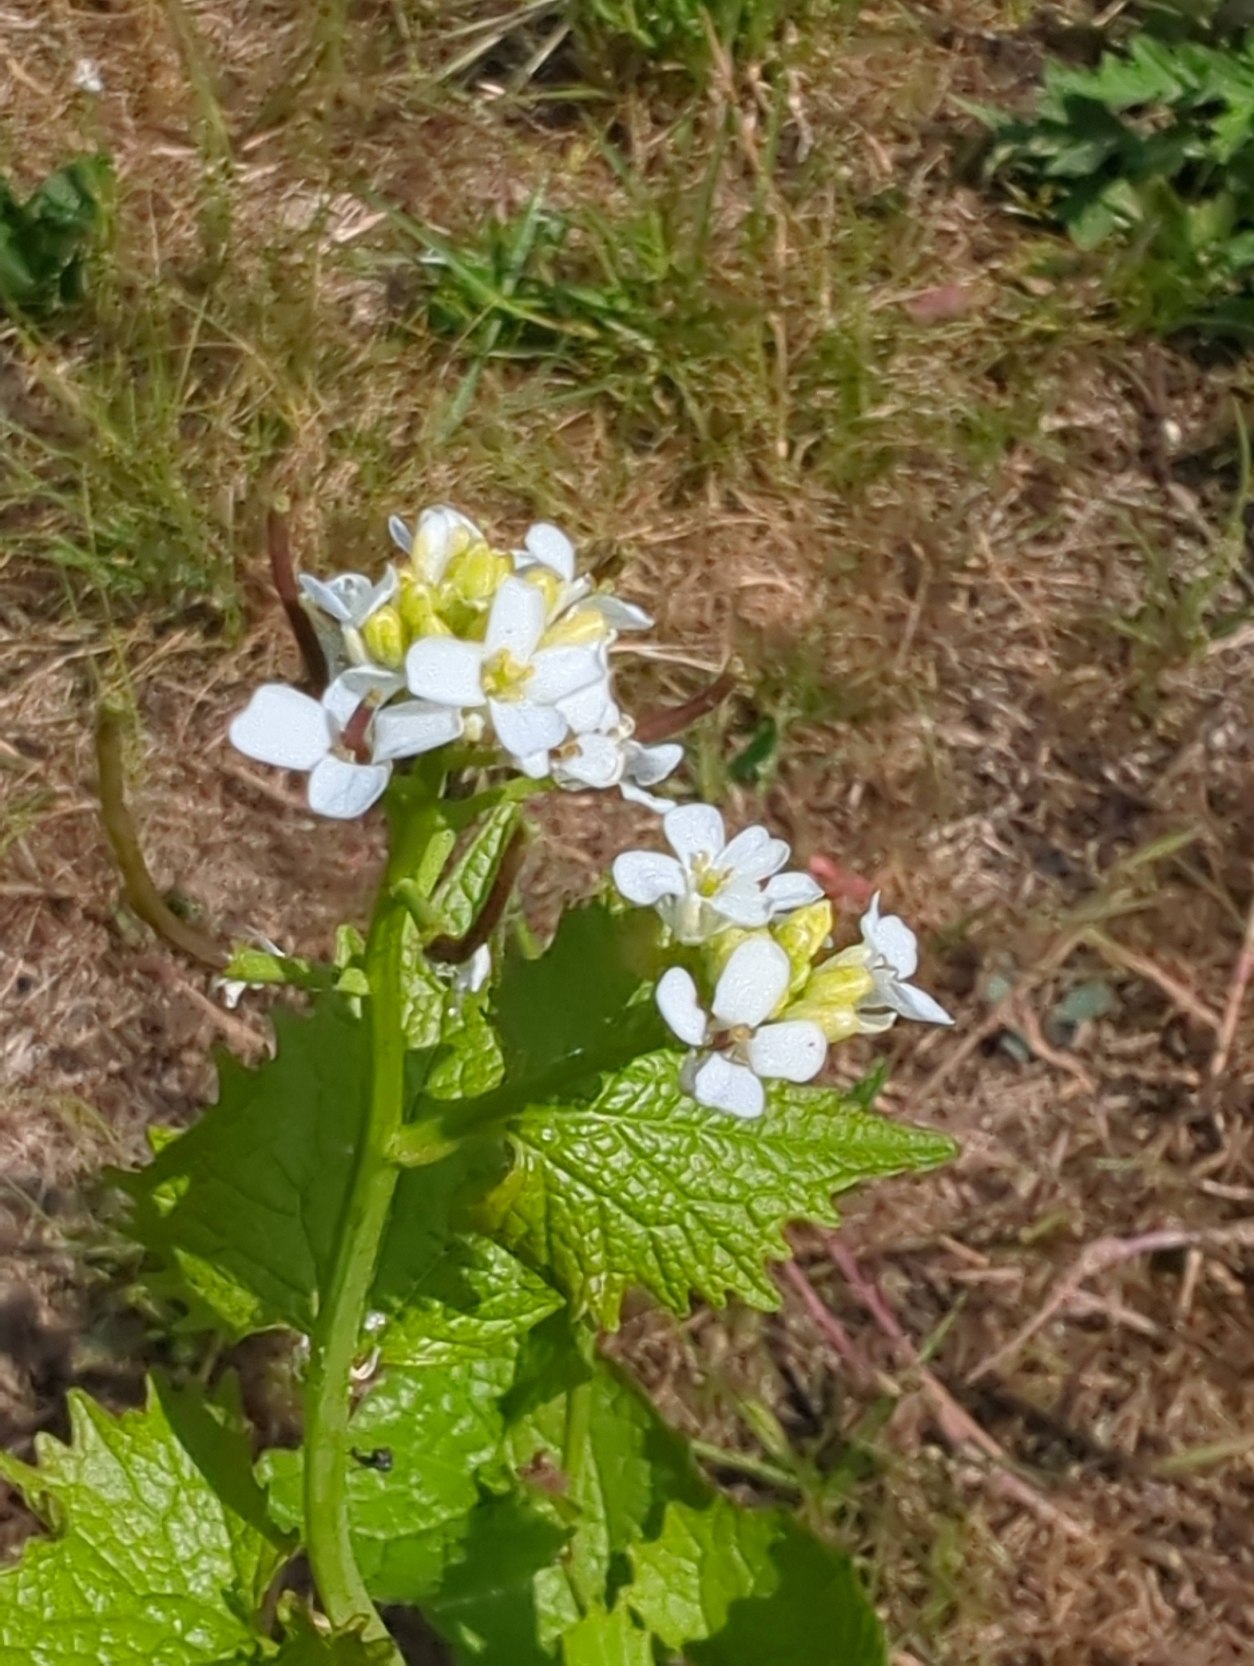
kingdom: Plantae
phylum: Tracheophyta
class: Magnoliopsida
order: Brassicales
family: Brassicaceae
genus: Alliaria
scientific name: Alliaria petiolata
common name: Løgkarse
